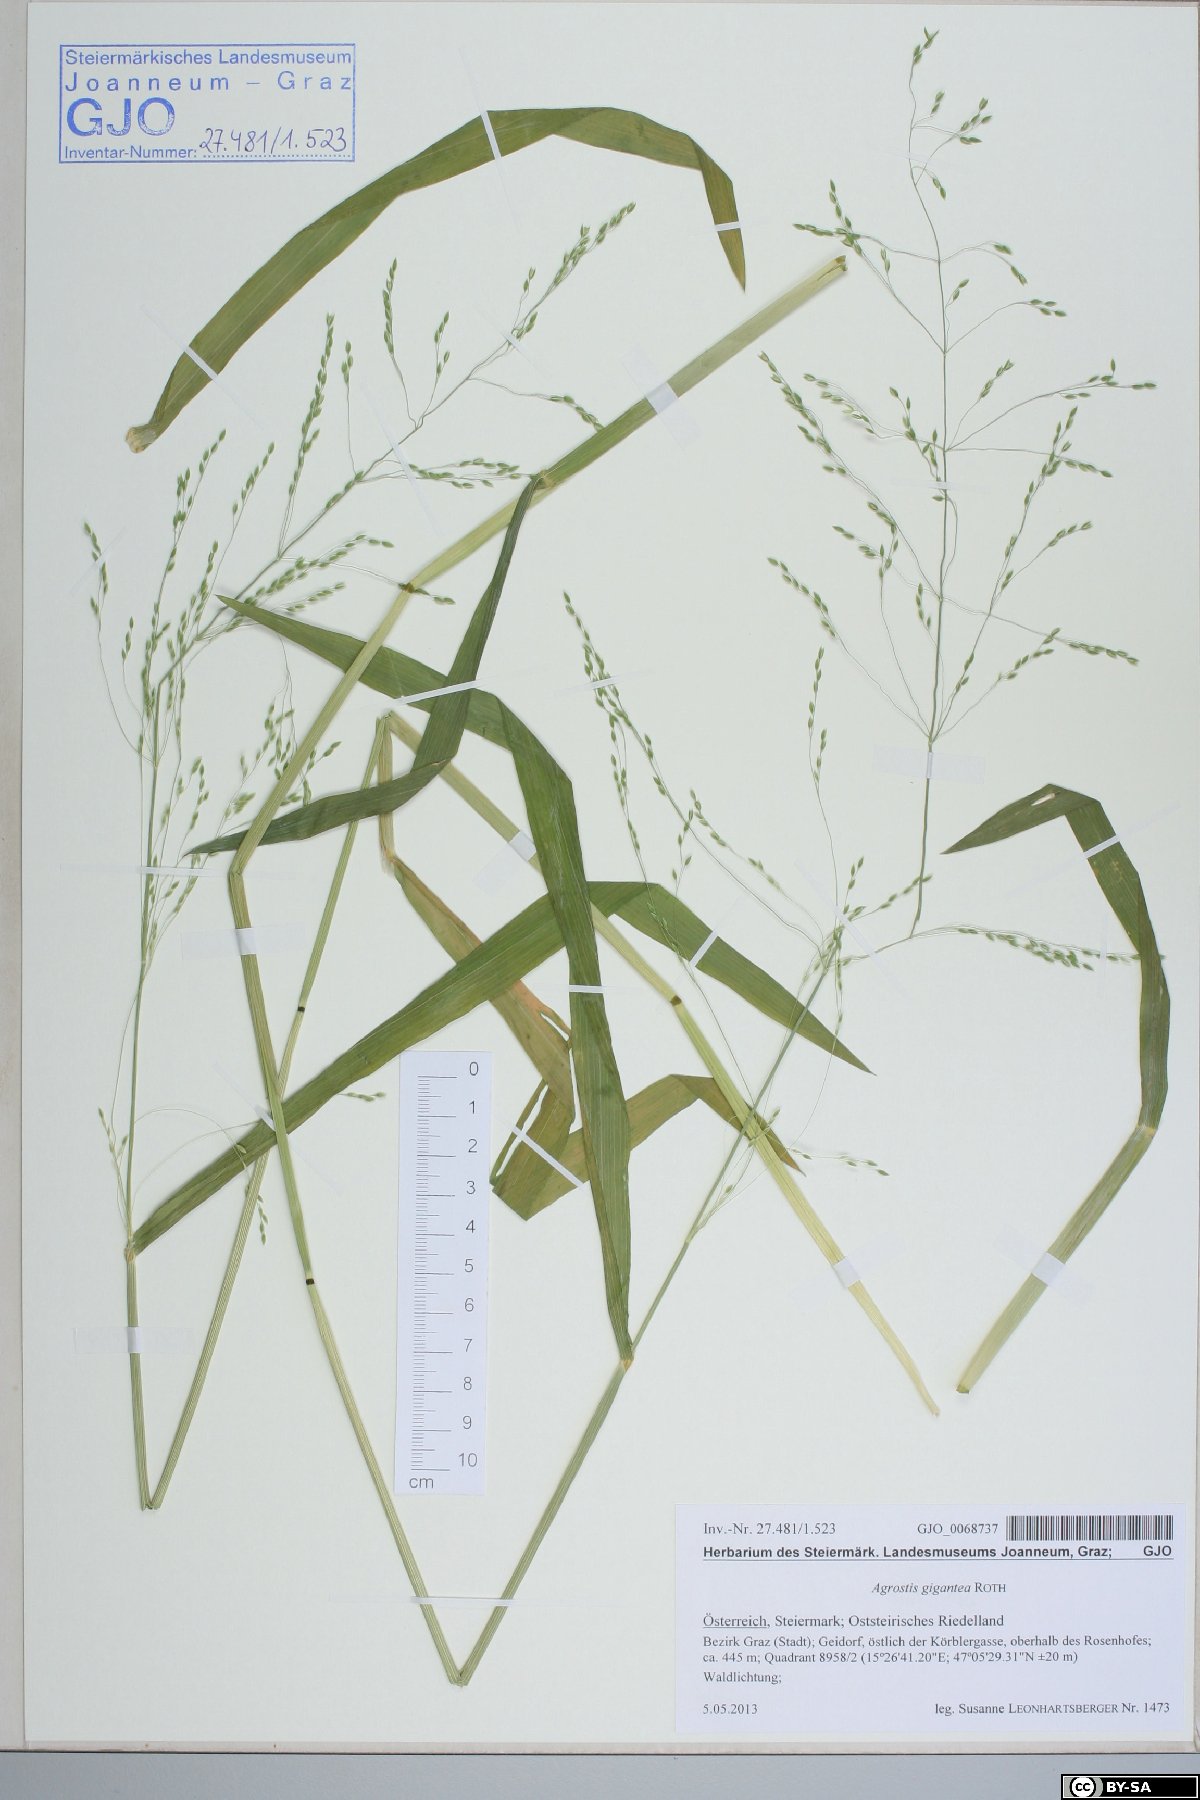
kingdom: Plantae
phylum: Tracheophyta
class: Liliopsida
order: Poales
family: Poaceae
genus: Milium
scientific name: Milium effusum
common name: Wood millet
